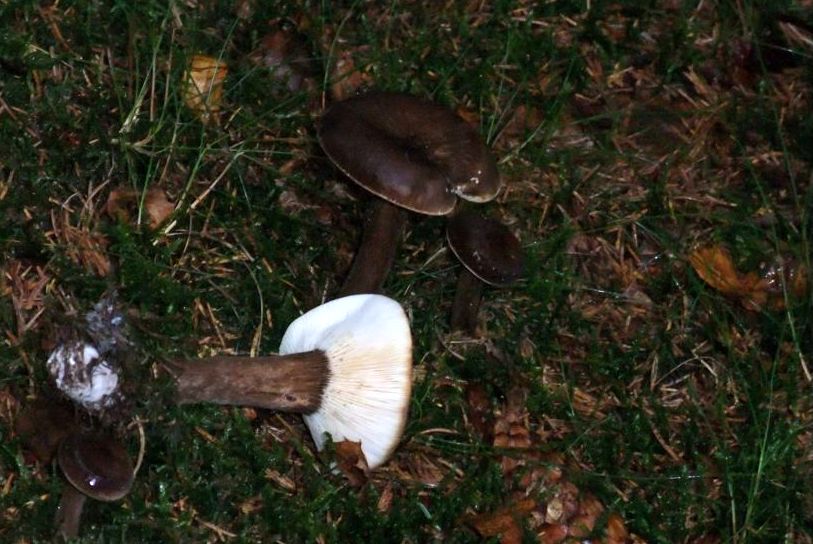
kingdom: Fungi
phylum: Basidiomycota
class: Agaricomycetes
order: Russulales
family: Russulaceae
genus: Lactarius
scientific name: Lactarius lignyotus
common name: fløjls-mælkehat
